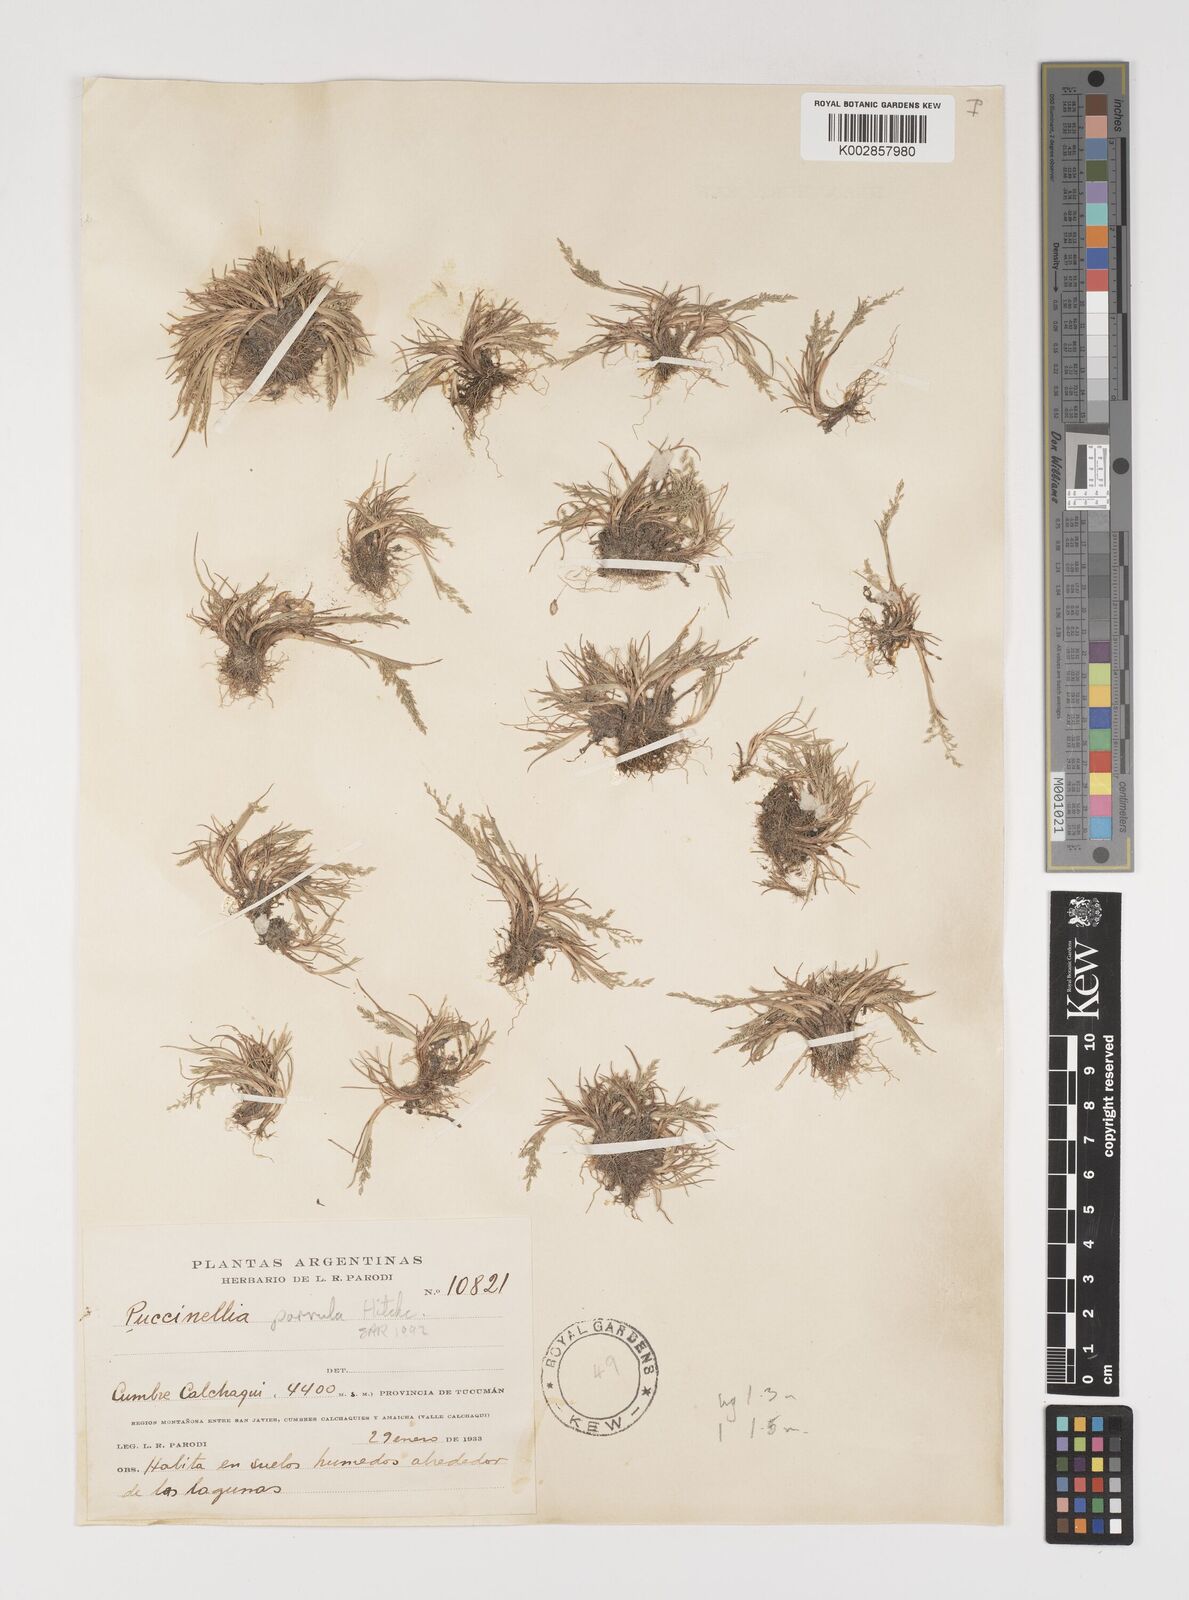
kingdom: Plantae
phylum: Tracheophyta
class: Liliopsida
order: Poales
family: Poaceae
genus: Puccinellia
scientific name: Puccinellia parvula
